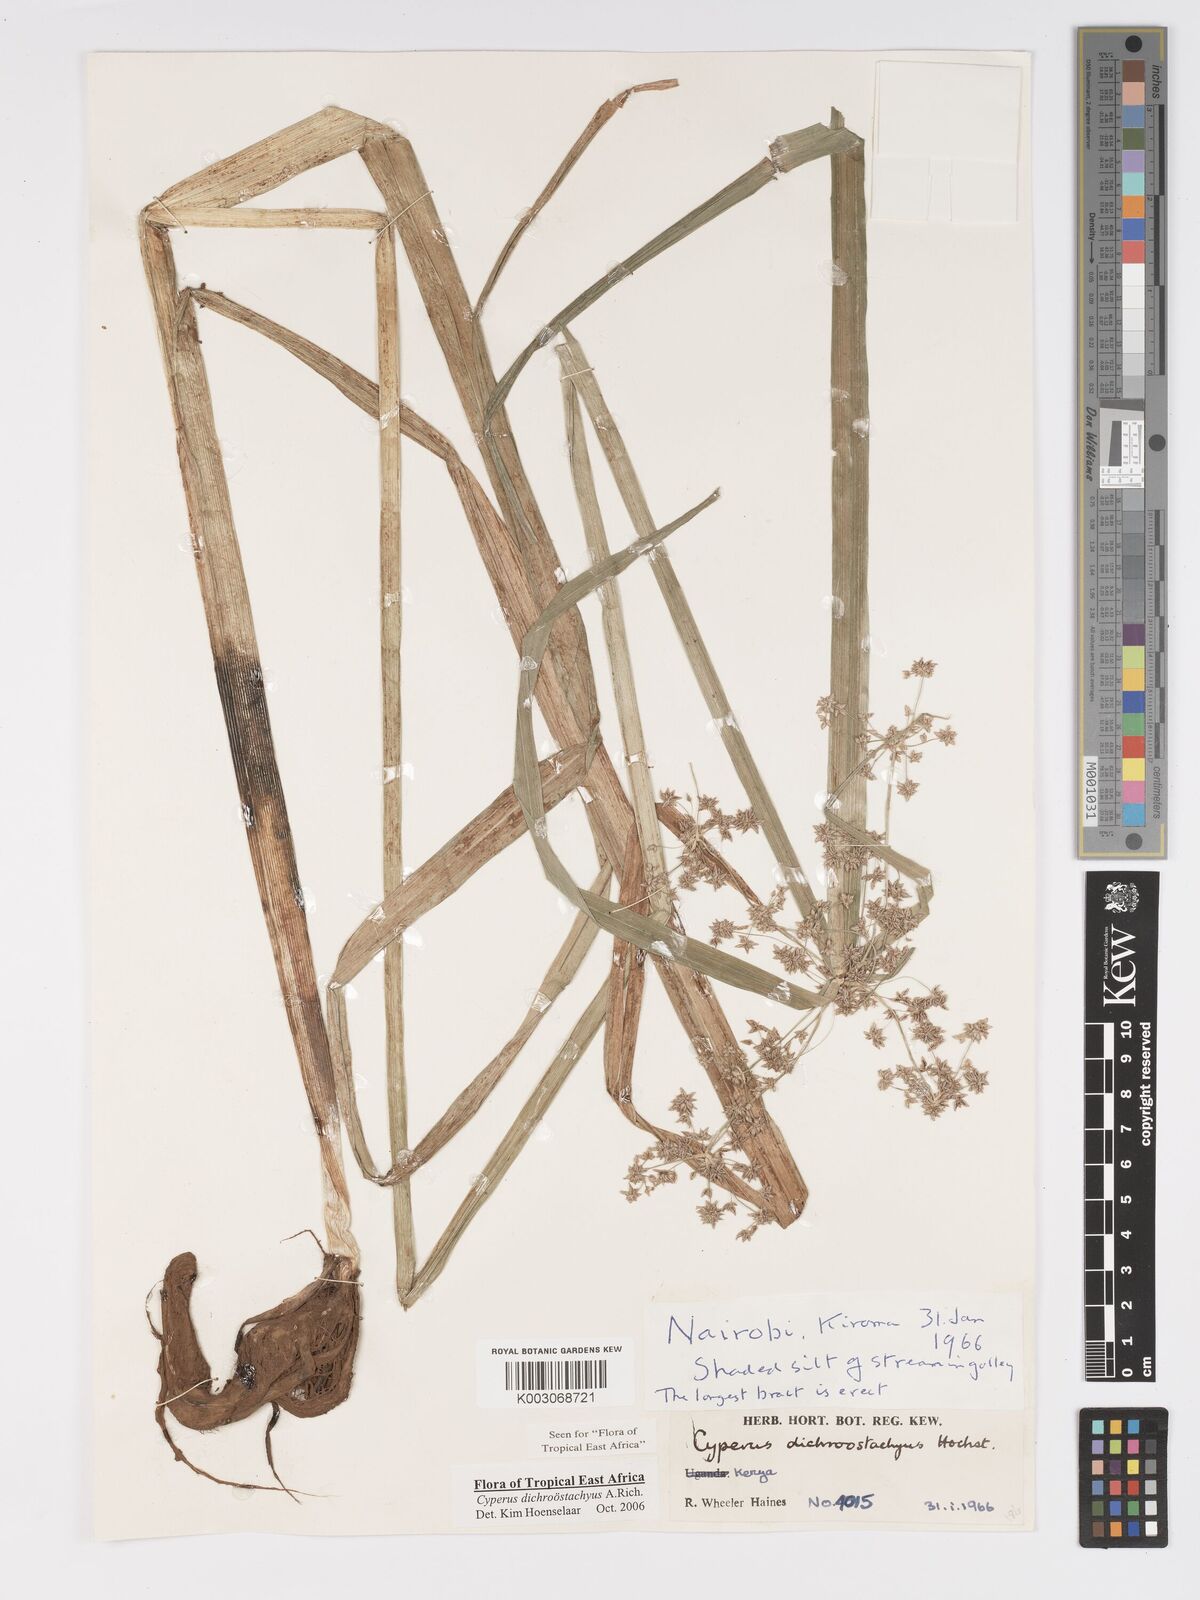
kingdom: Plantae
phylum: Tracheophyta
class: Liliopsida
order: Poales
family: Cyperaceae
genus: Cyperus
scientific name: Cyperus dichrostachyus
